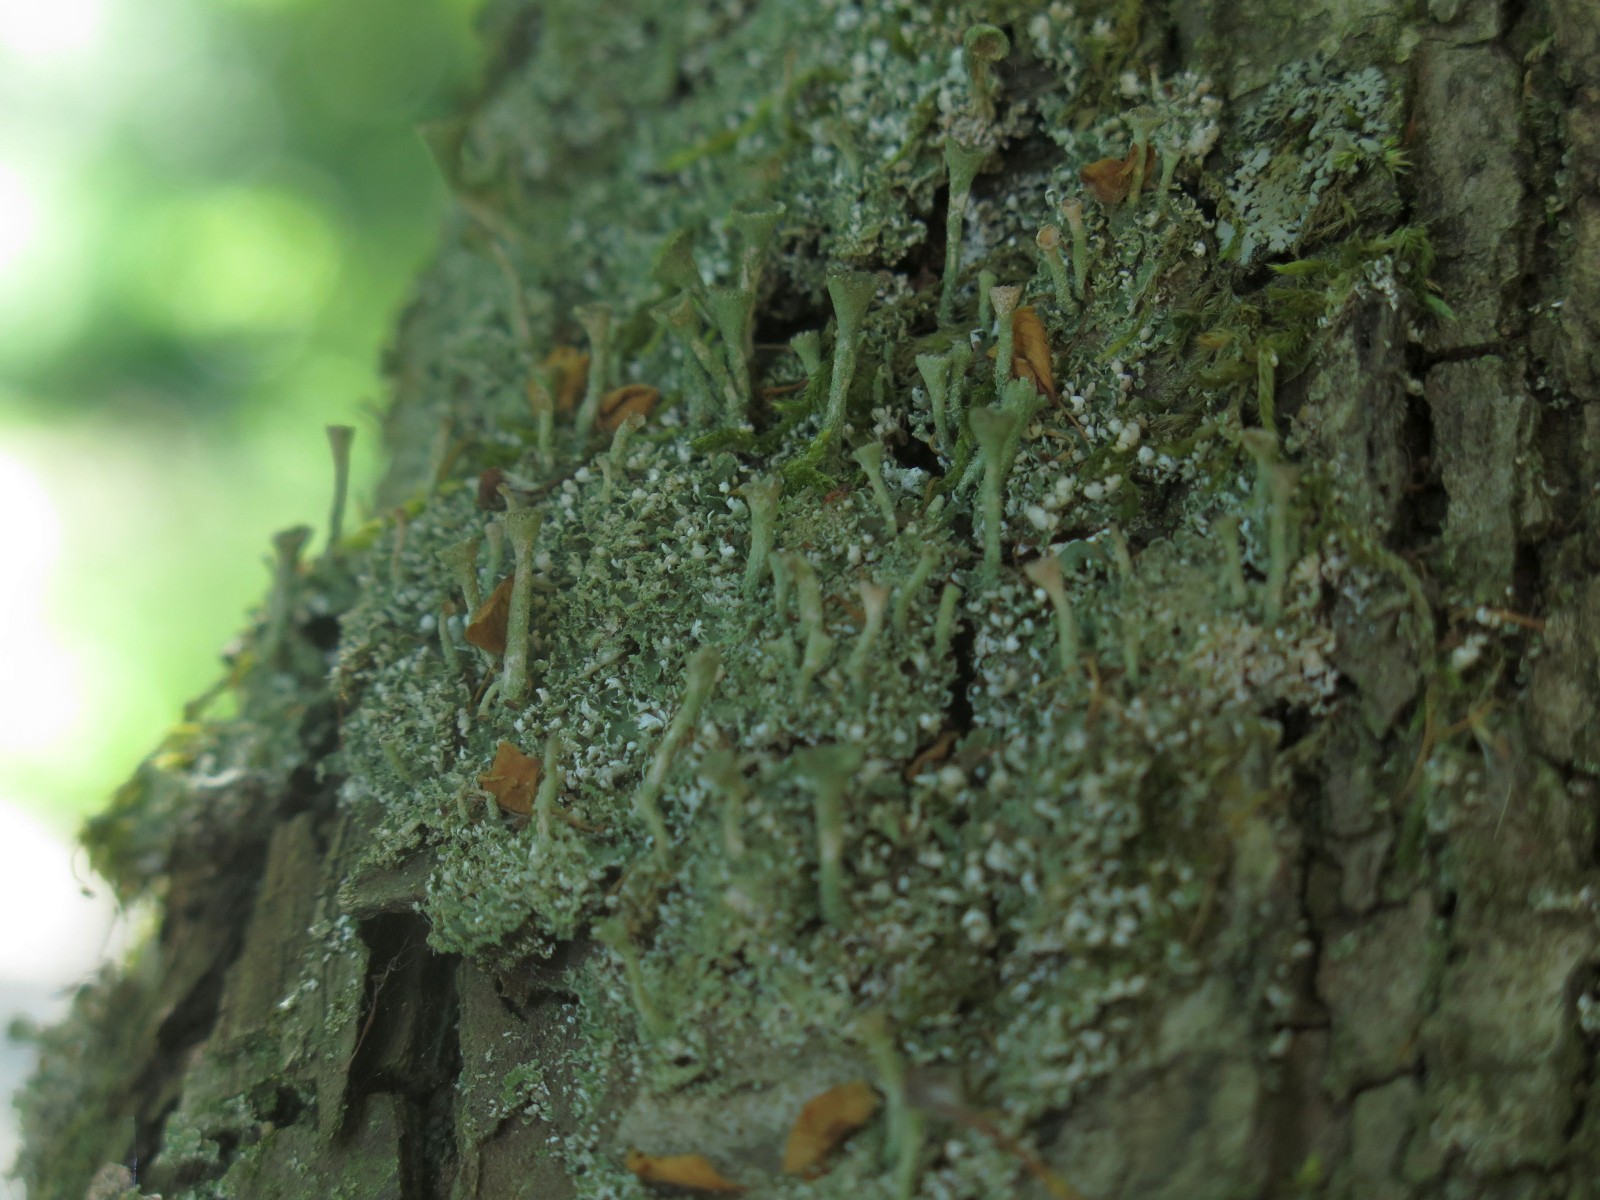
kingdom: Fungi
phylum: Ascomycota
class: Lecanoromycetes
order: Lecanorales
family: Cladoniaceae
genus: Cladonia
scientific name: Cladonia
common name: brungrøn bægerlav
